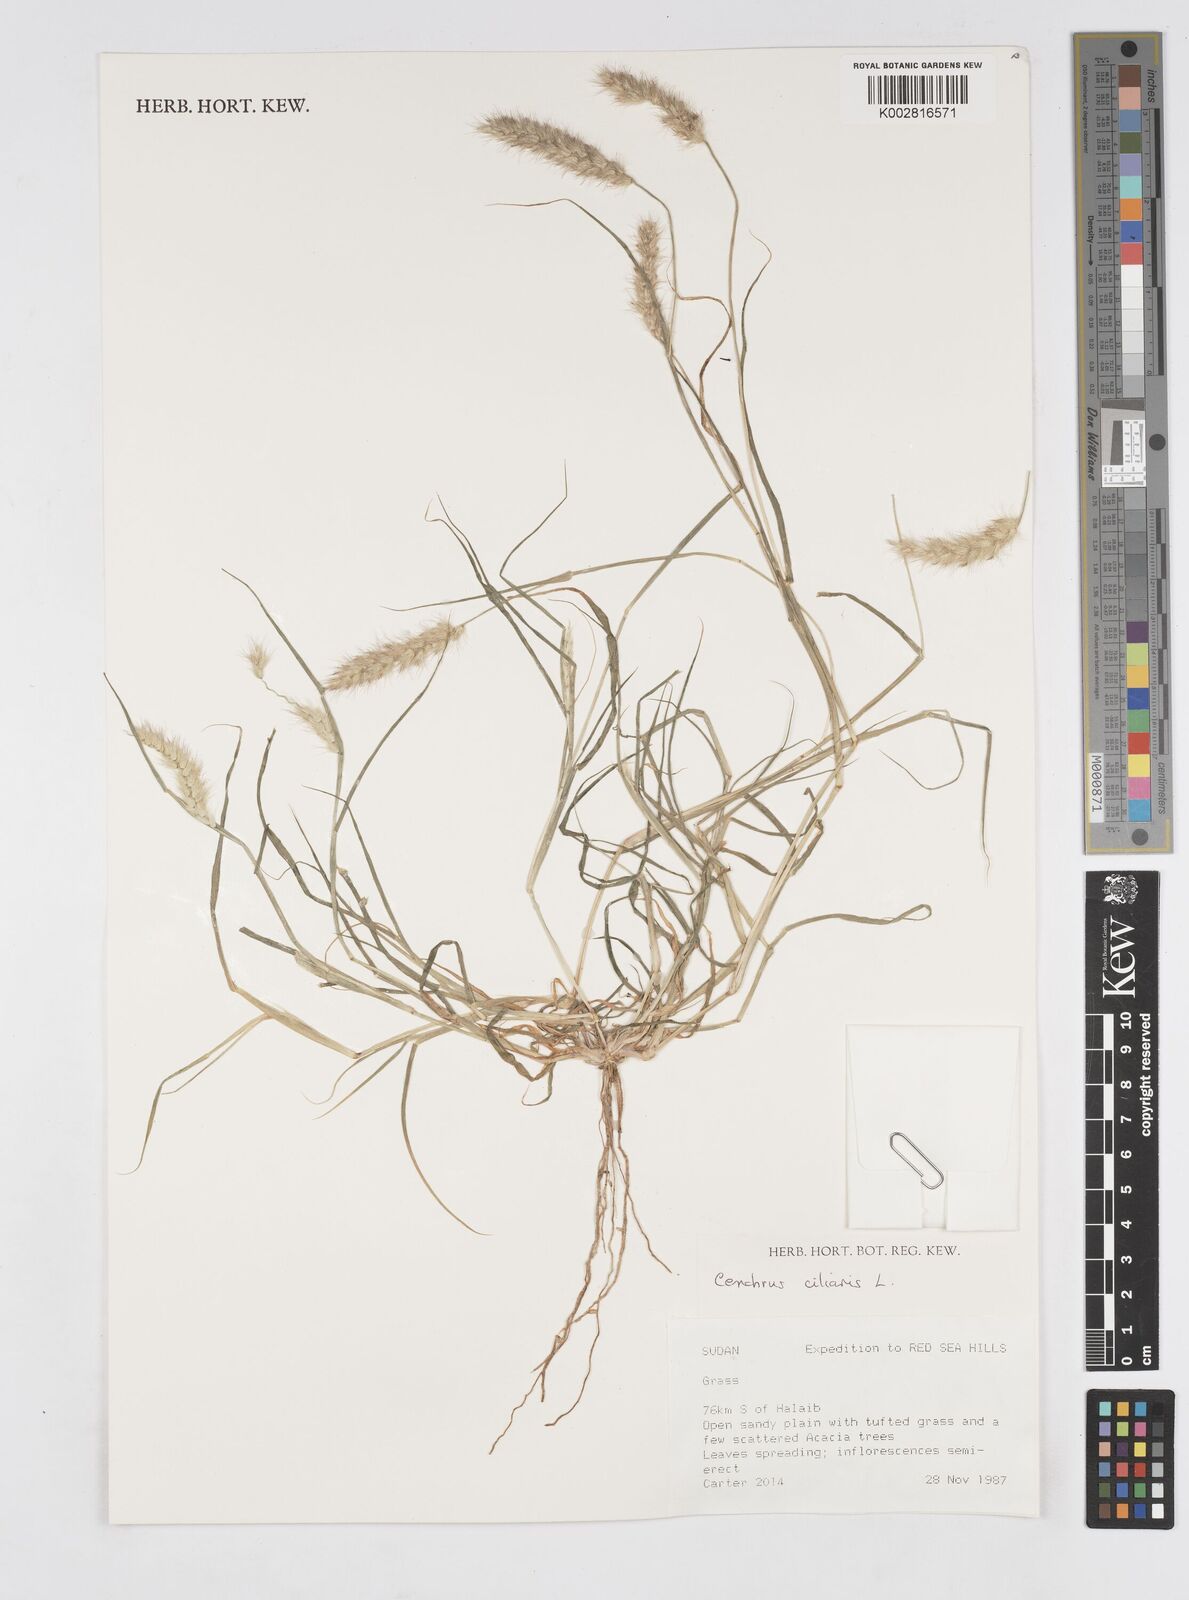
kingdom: Plantae
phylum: Tracheophyta
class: Liliopsida
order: Poales
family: Poaceae
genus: Cenchrus
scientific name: Cenchrus ciliaris
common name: Buffelgrass
